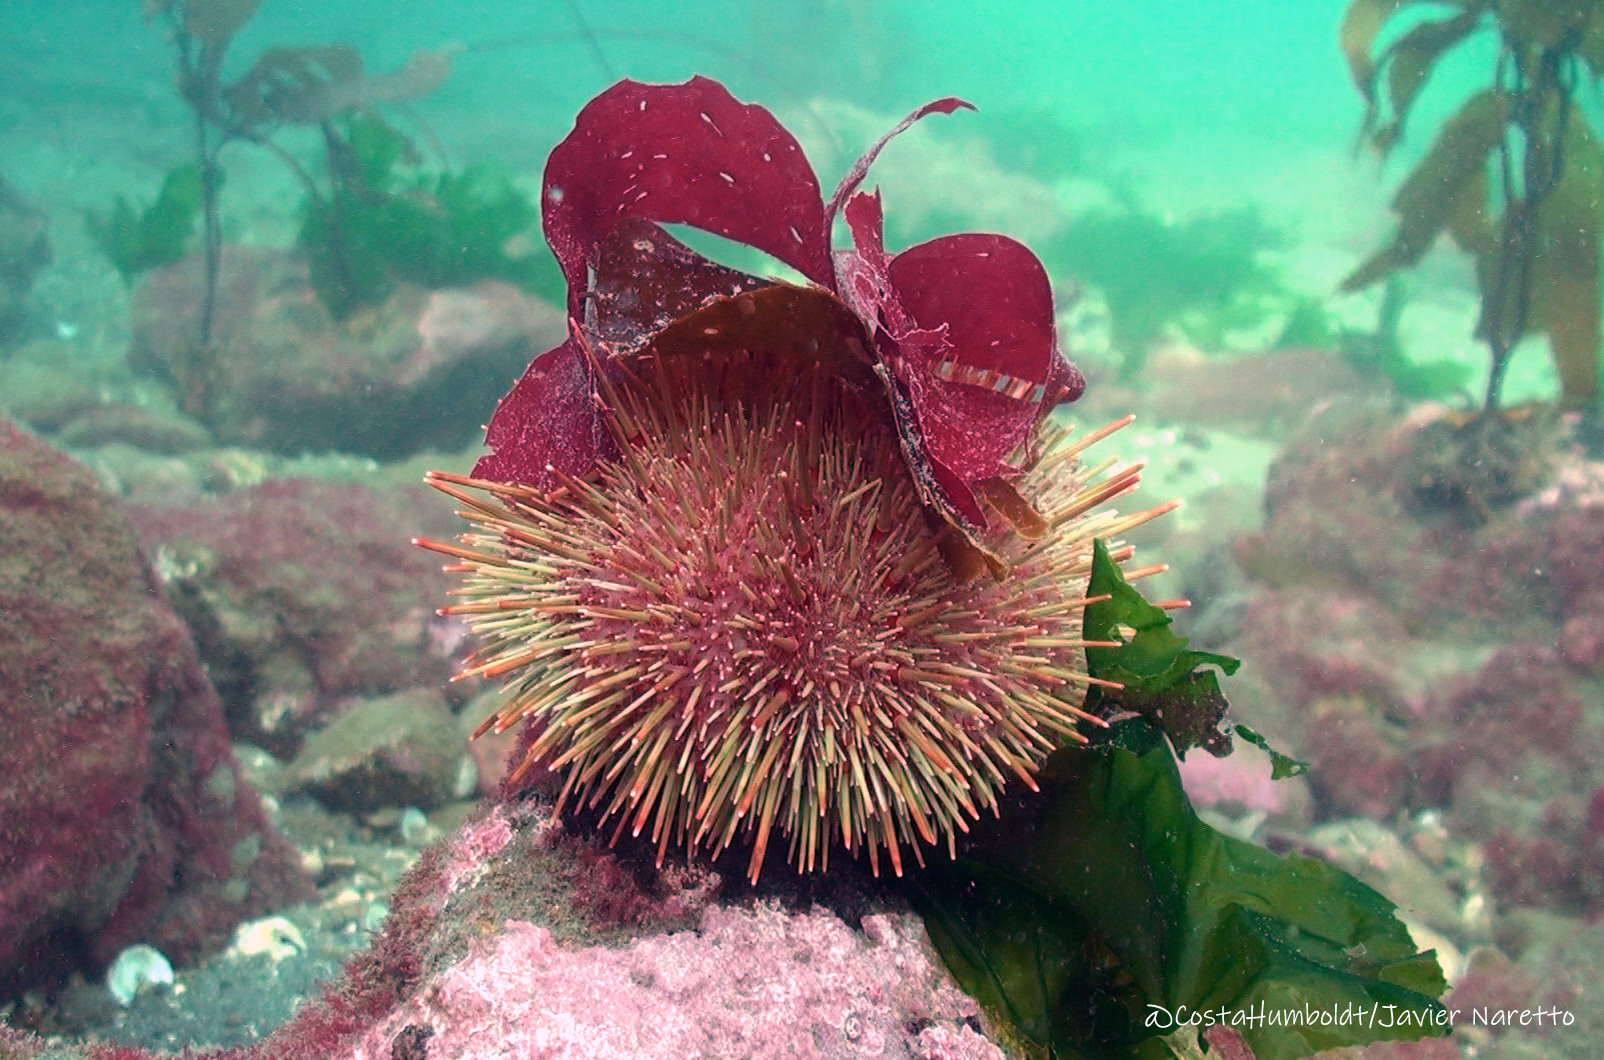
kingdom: Animalia
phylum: Echinodermata
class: Echinoidea
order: Camarodonta
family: Parechinidae
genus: Loxechinus
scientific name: Loxechinus albus
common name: Chilean sea urchin
